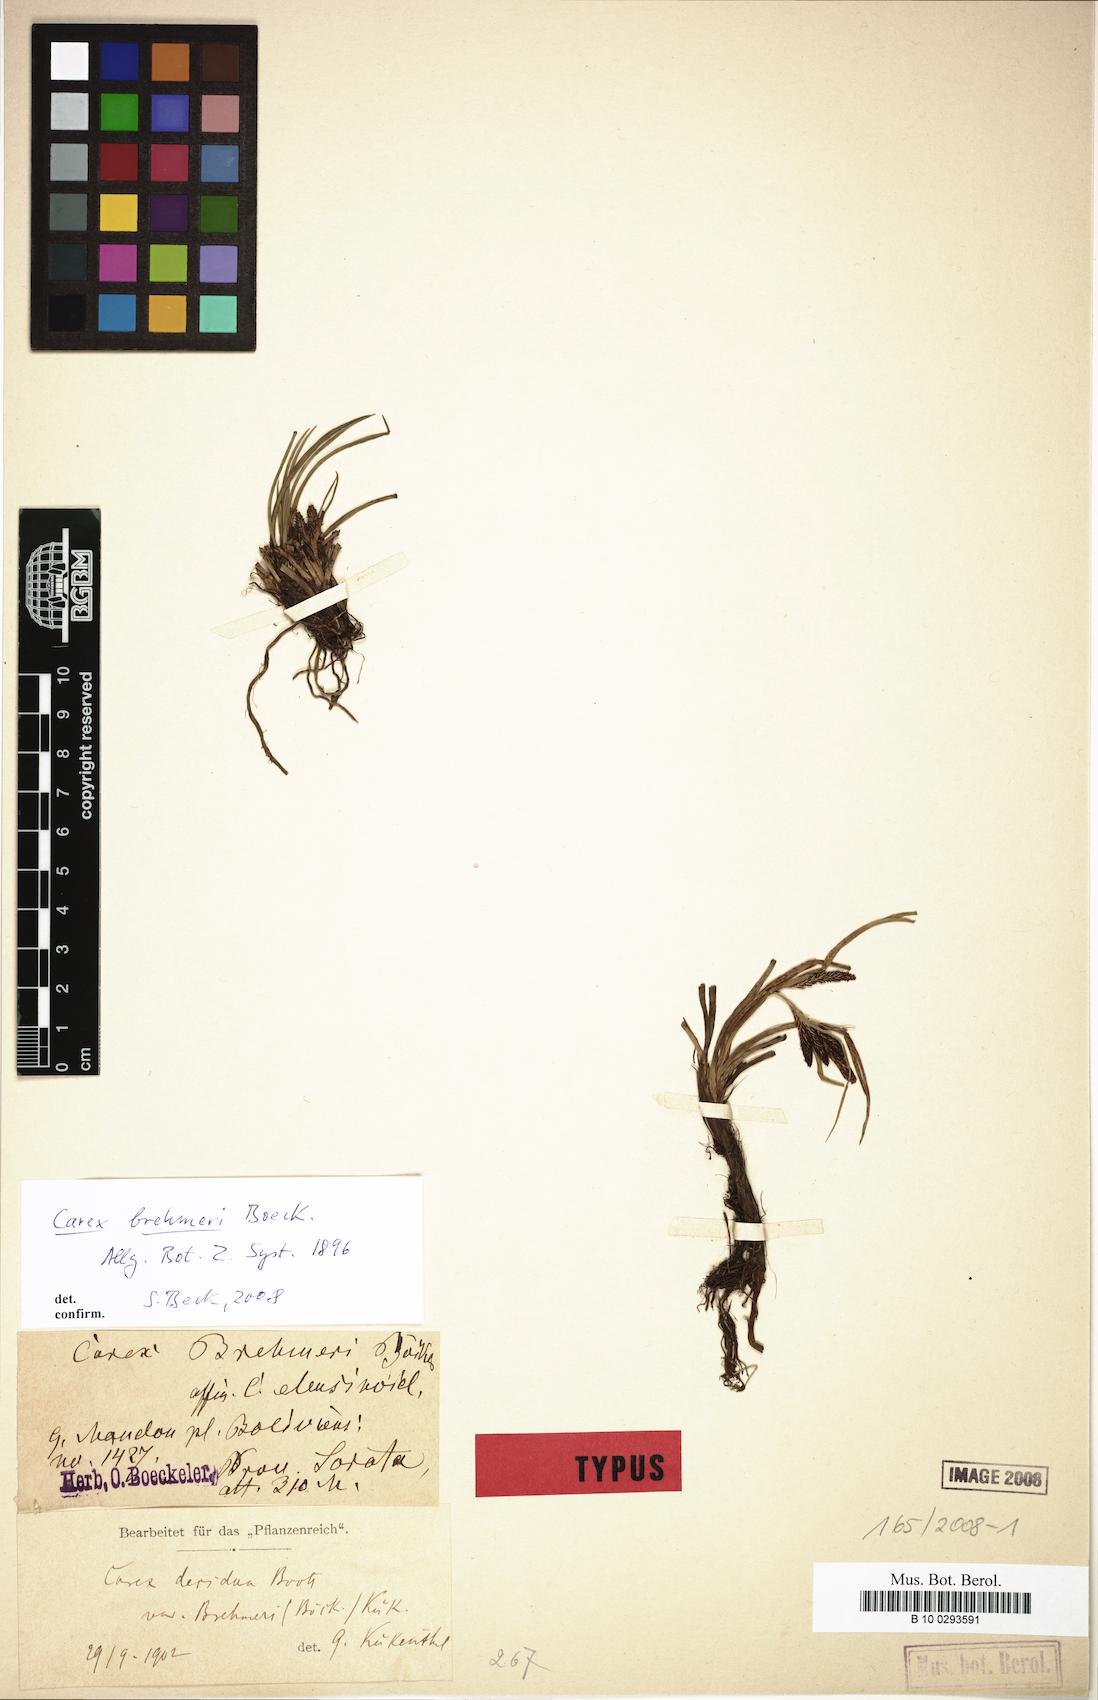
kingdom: Plantae
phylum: Tracheophyta
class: Liliopsida
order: Poales
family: Cyperaceae
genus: Carex
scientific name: Carex brehmeri
